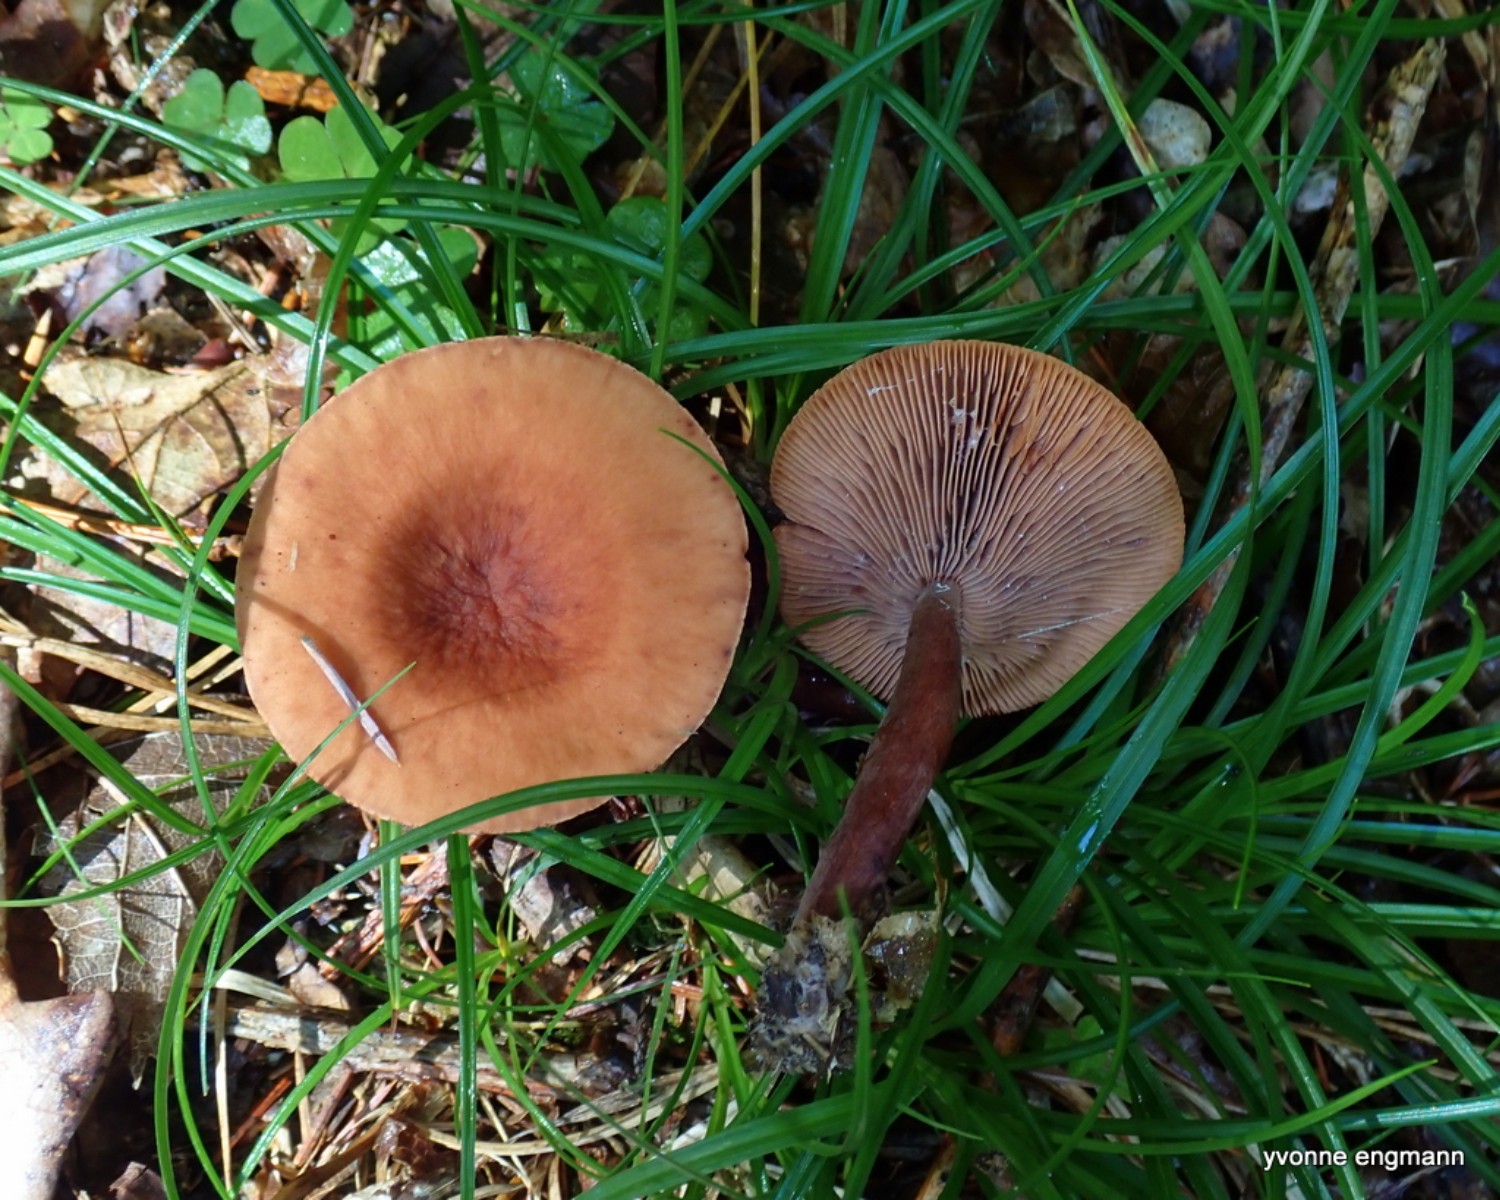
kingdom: Fungi
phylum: Basidiomycota
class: Agaricomycetes
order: Russulales
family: Russulaceae
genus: Lactarius
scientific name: Lactarius camphoratus
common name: kamfer-mælkehat
